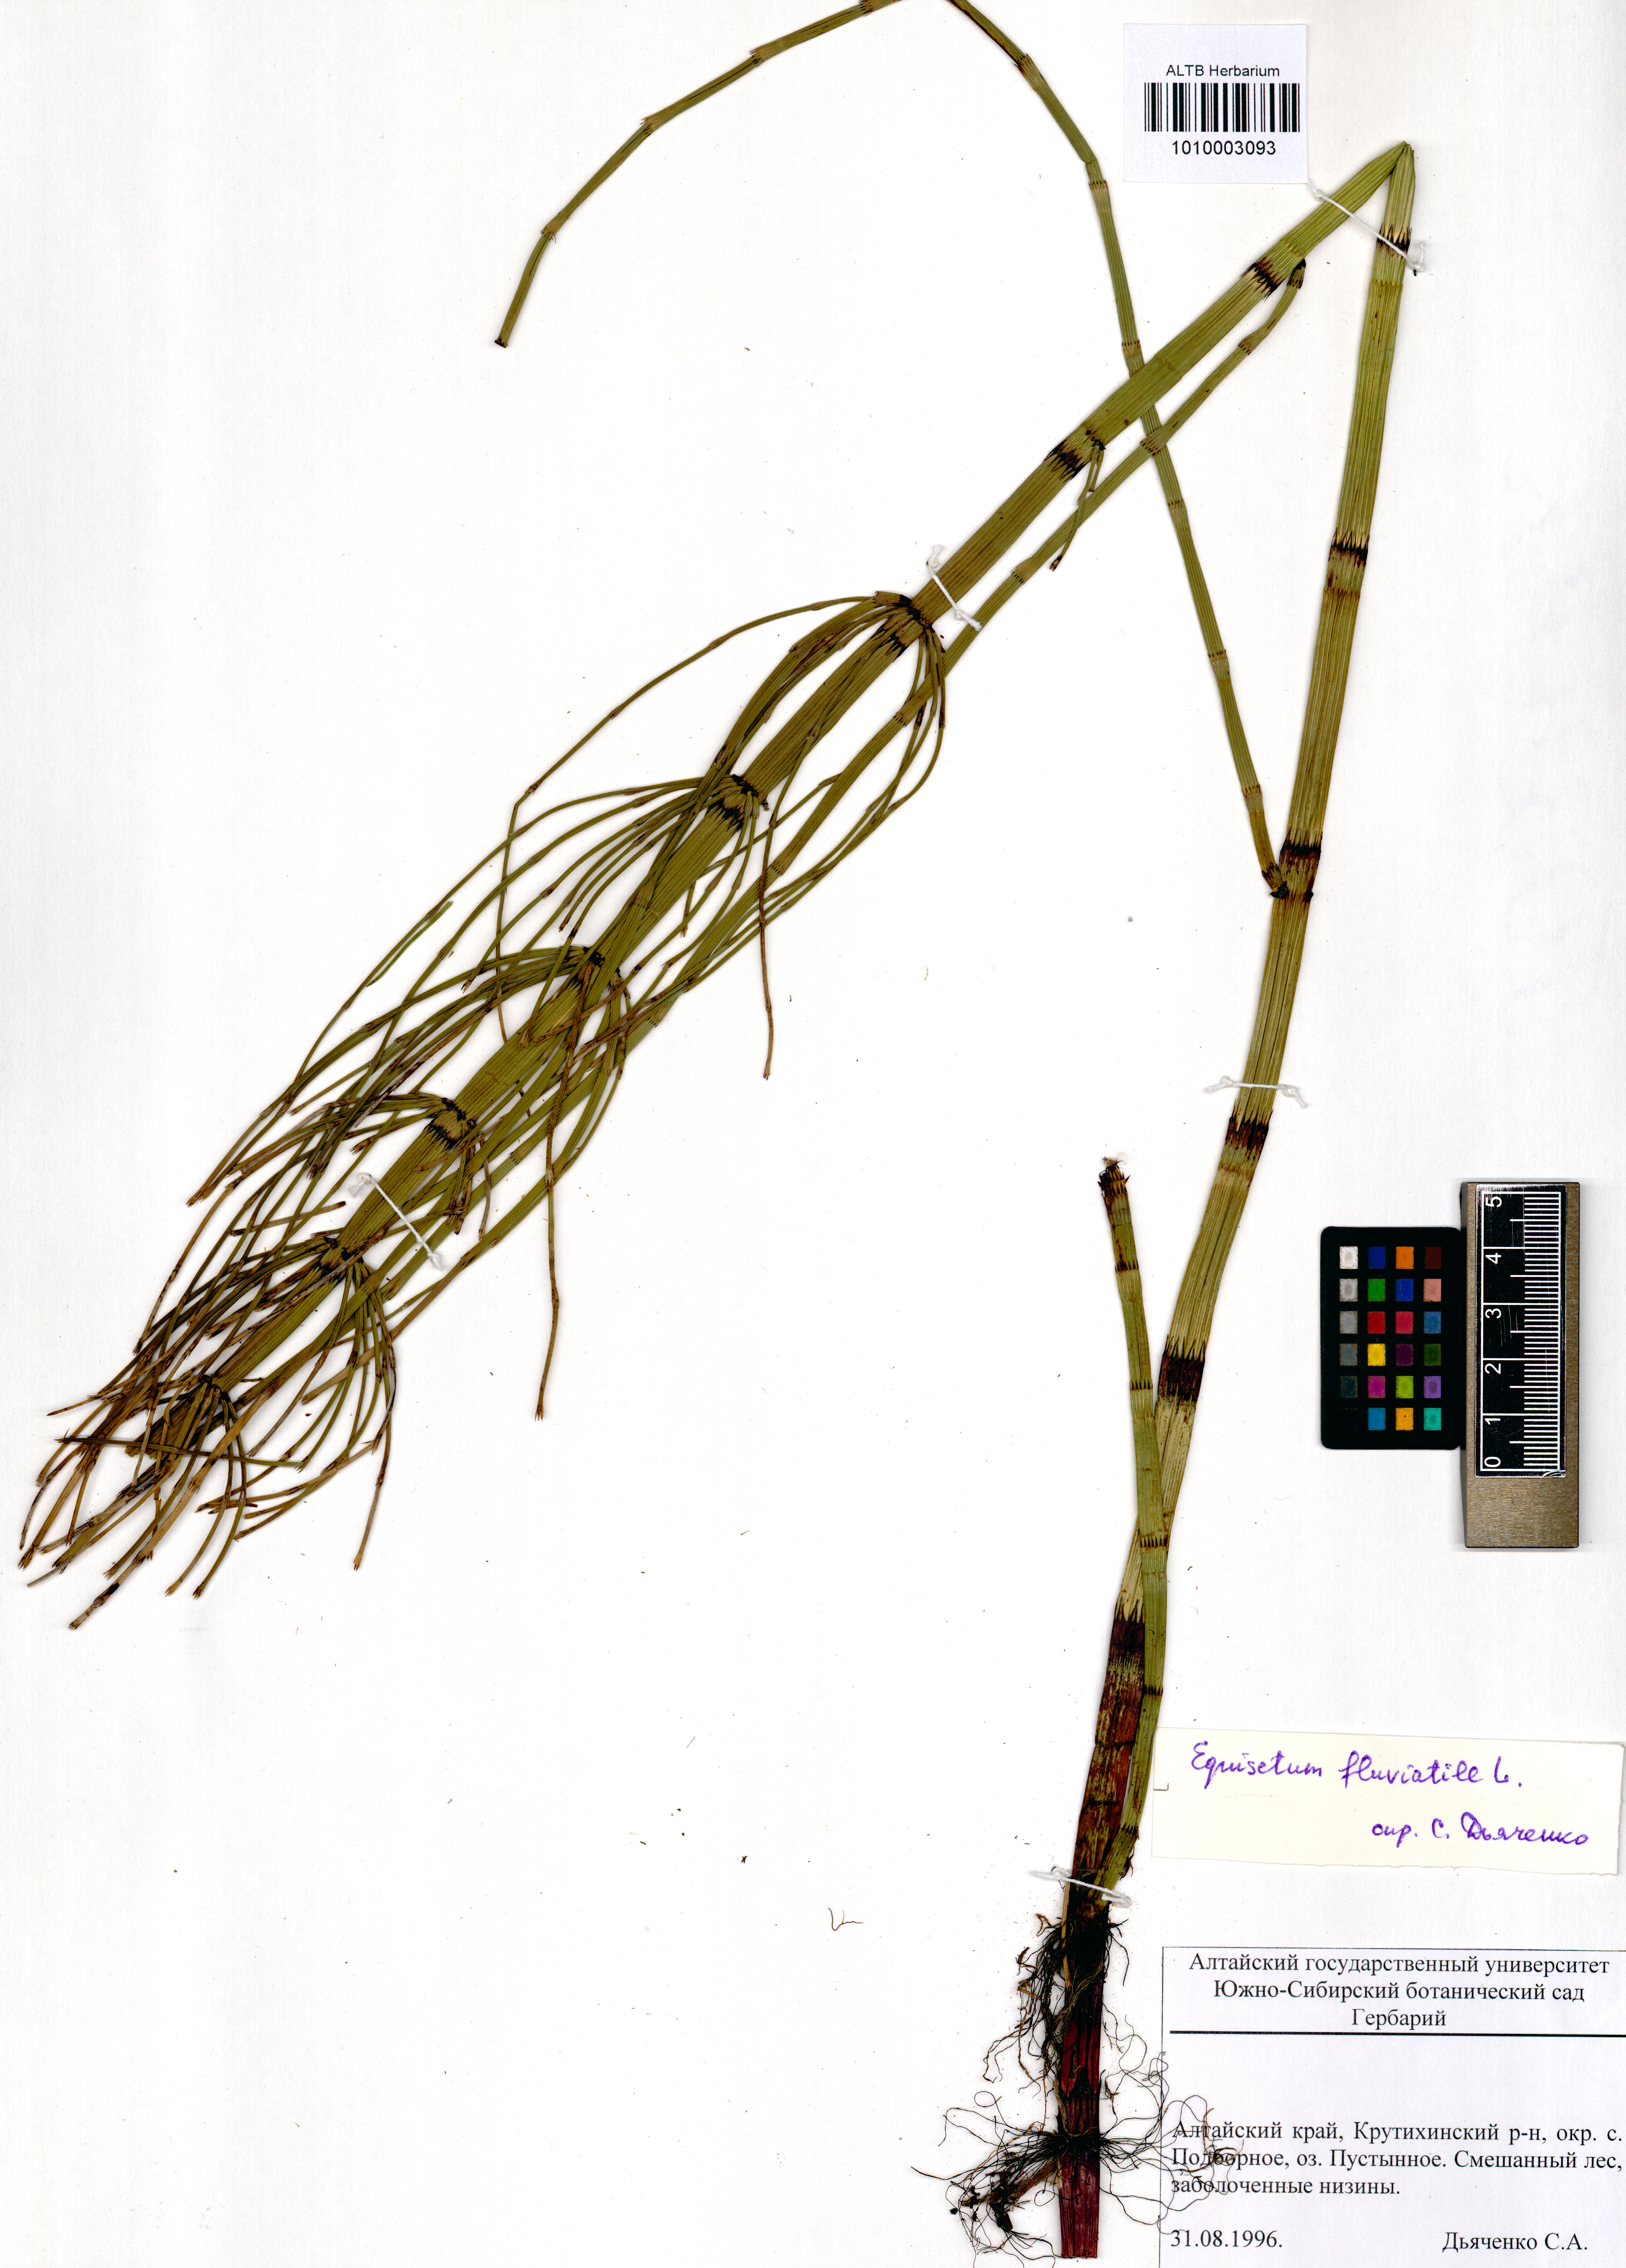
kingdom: Plantae
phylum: Tracheophyta
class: Polypodiopsida
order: Equisetales
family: Equisetaceae
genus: Equisetum
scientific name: Equisetum fluviatile
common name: Water horsetail
